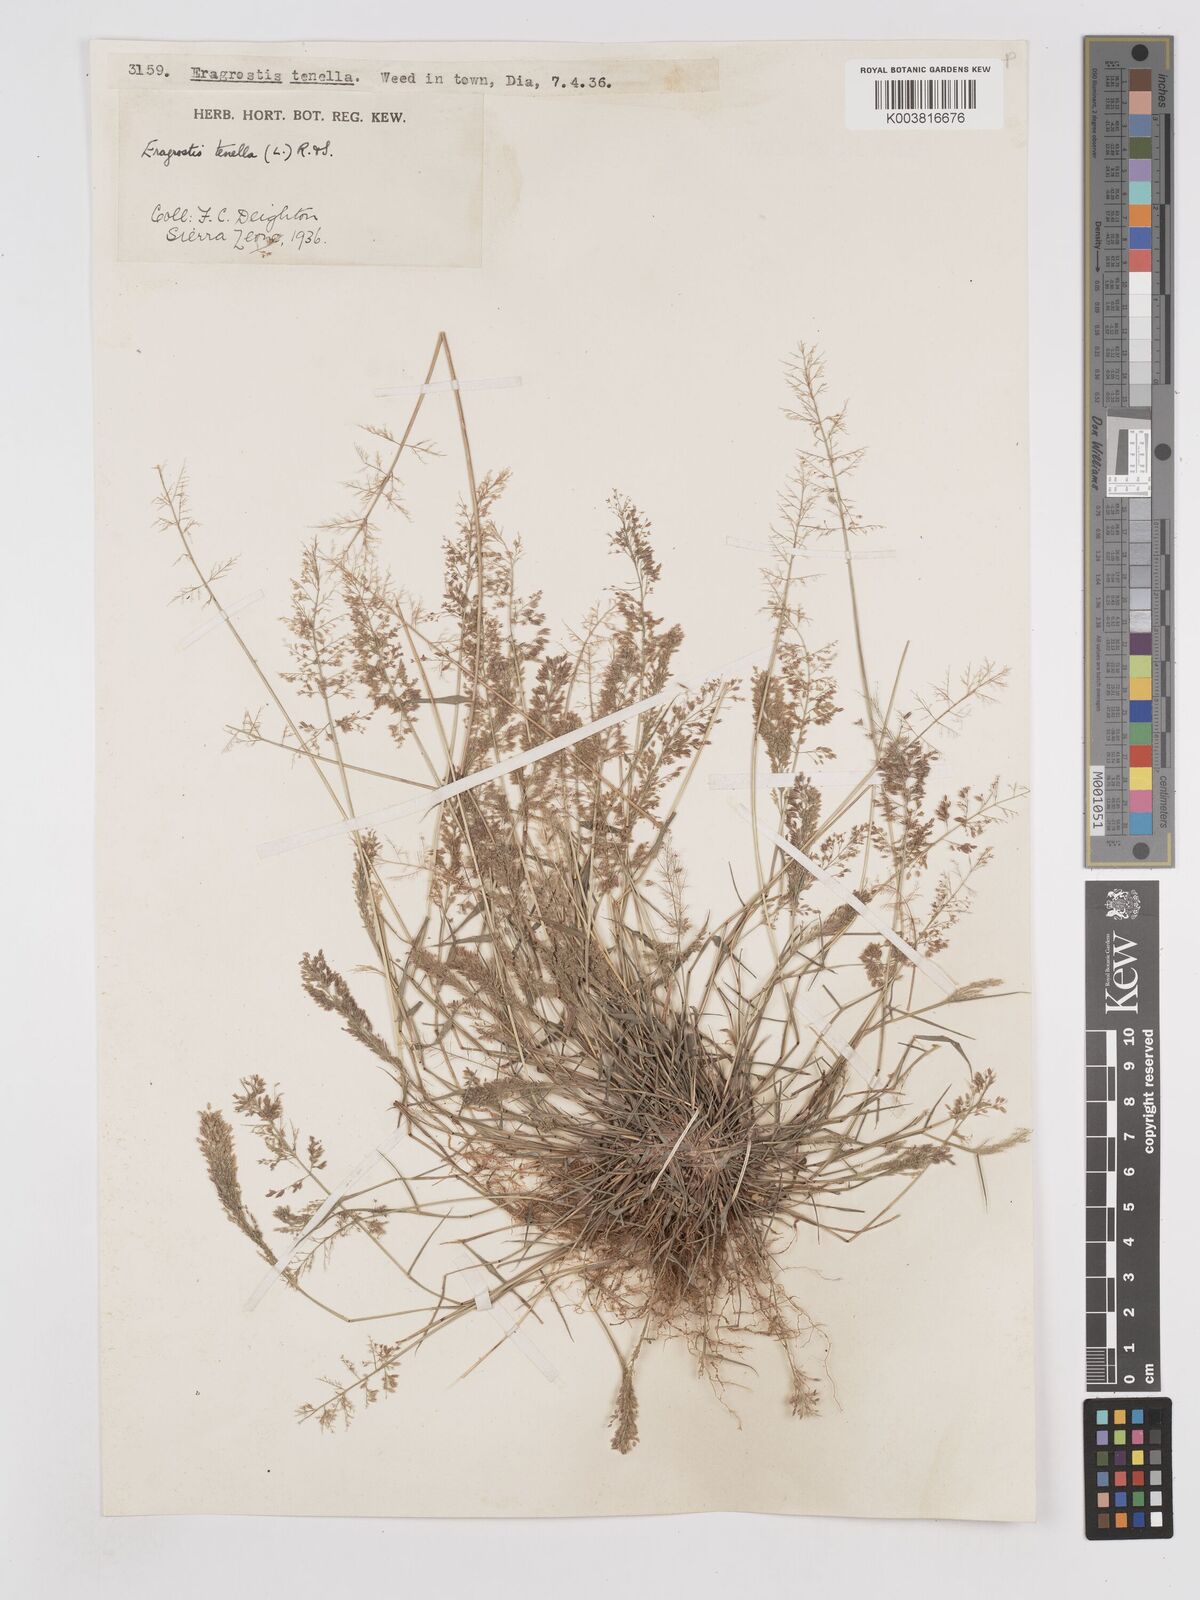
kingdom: Plantae
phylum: Tracheophyta
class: Liliopsida
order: Poales
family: Poaceae
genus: Eragrostis
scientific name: Eragrostis tenella
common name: Japanese lovegrass
